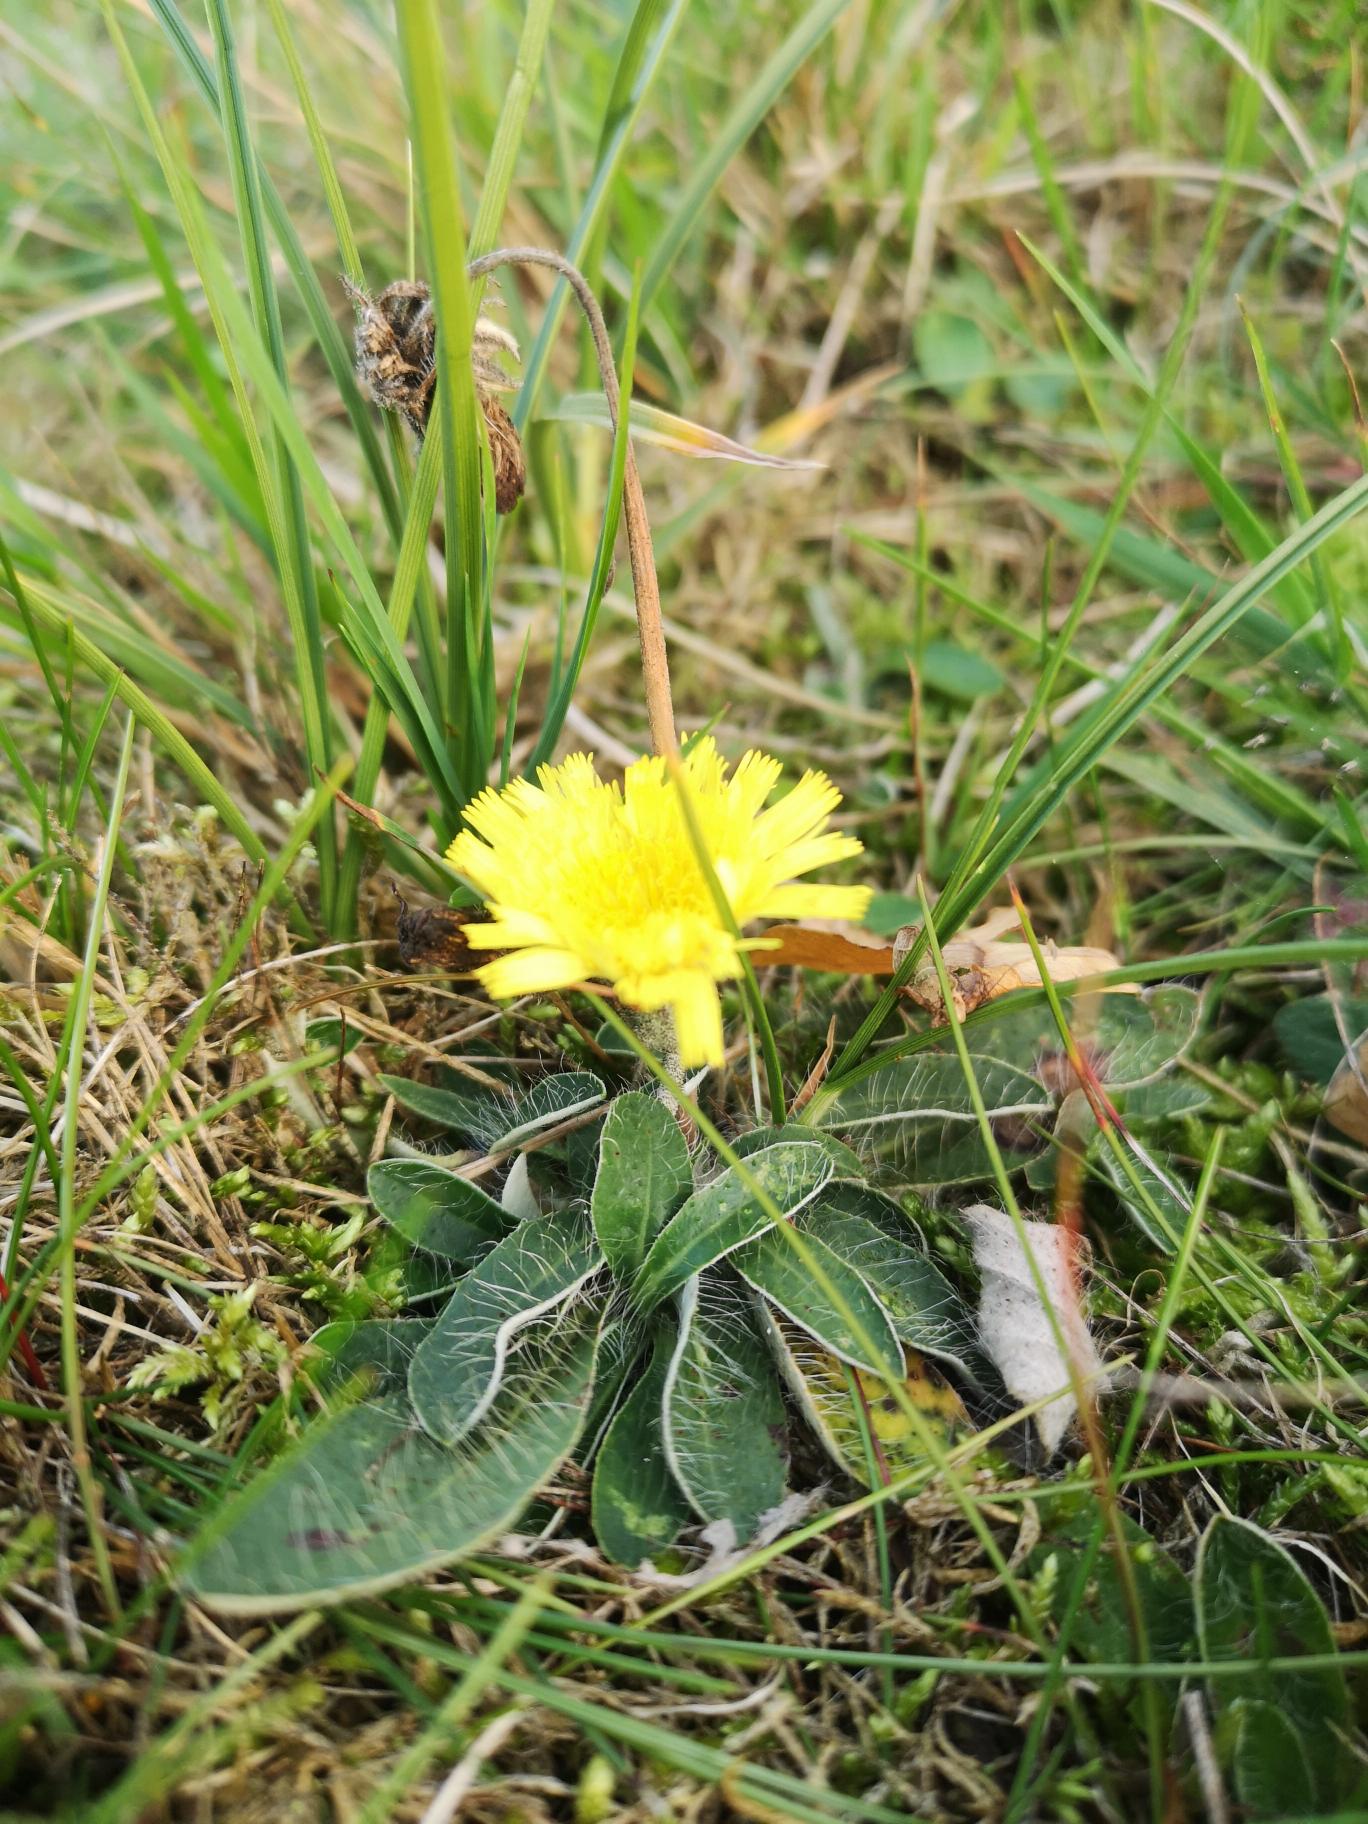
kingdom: Plantae
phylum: Tracheophyta
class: Magnoliopsida
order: Asterales
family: Asteraceae
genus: Pilosella
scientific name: Pilosella officinarum
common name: Håret høgeurt
